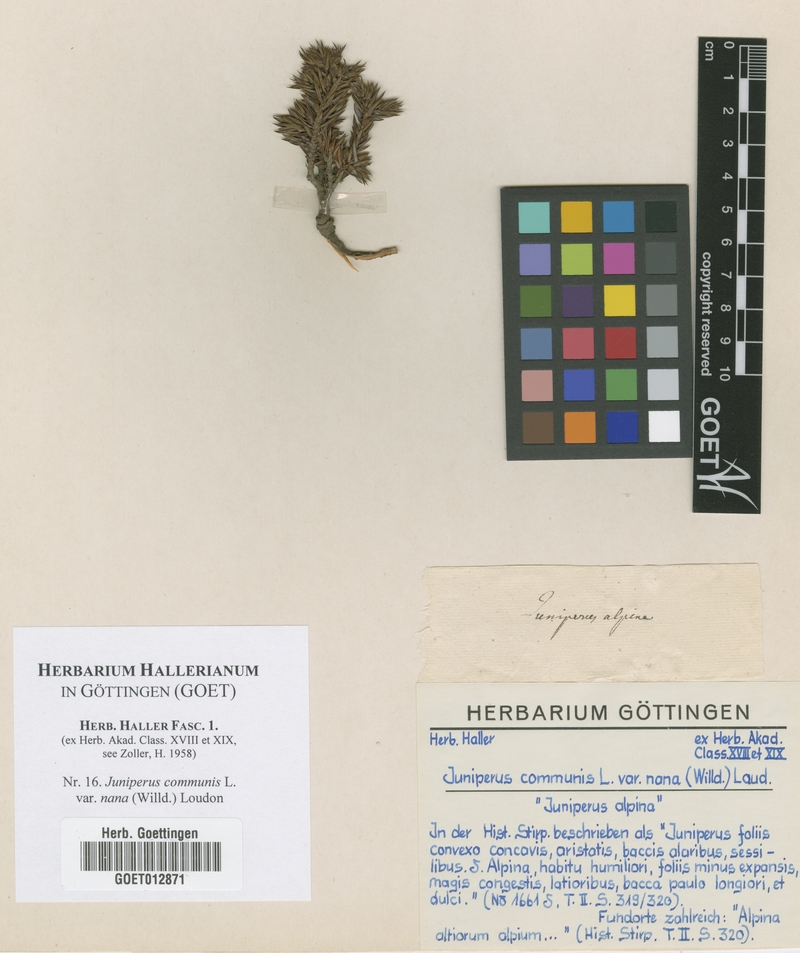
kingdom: Plantae
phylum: Tracheophyta
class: Pinopsida
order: Pinales
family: Cupressaceae
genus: Juniperus
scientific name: Juniperus communis
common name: Common juniper
